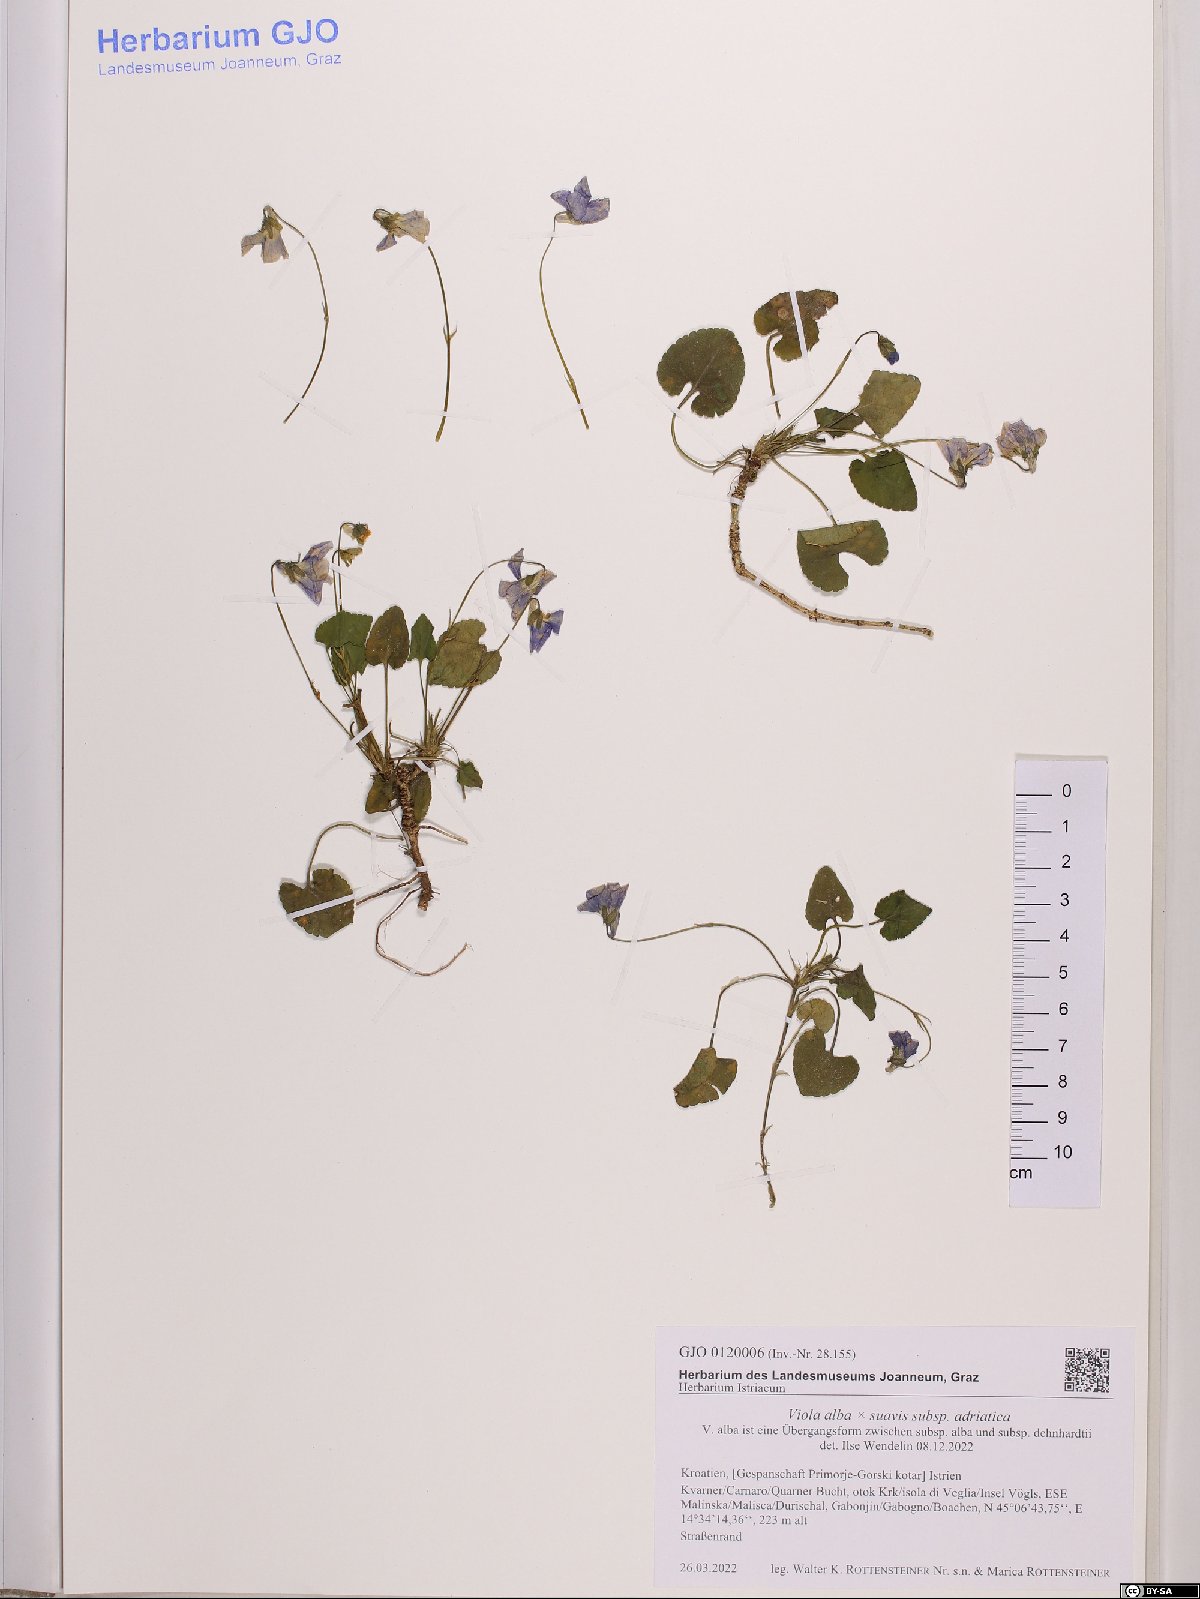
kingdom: Plantae
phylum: Tracheophyta
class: Magnoliopsida
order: Malpighiales
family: Violaceae
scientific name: Violaceae
